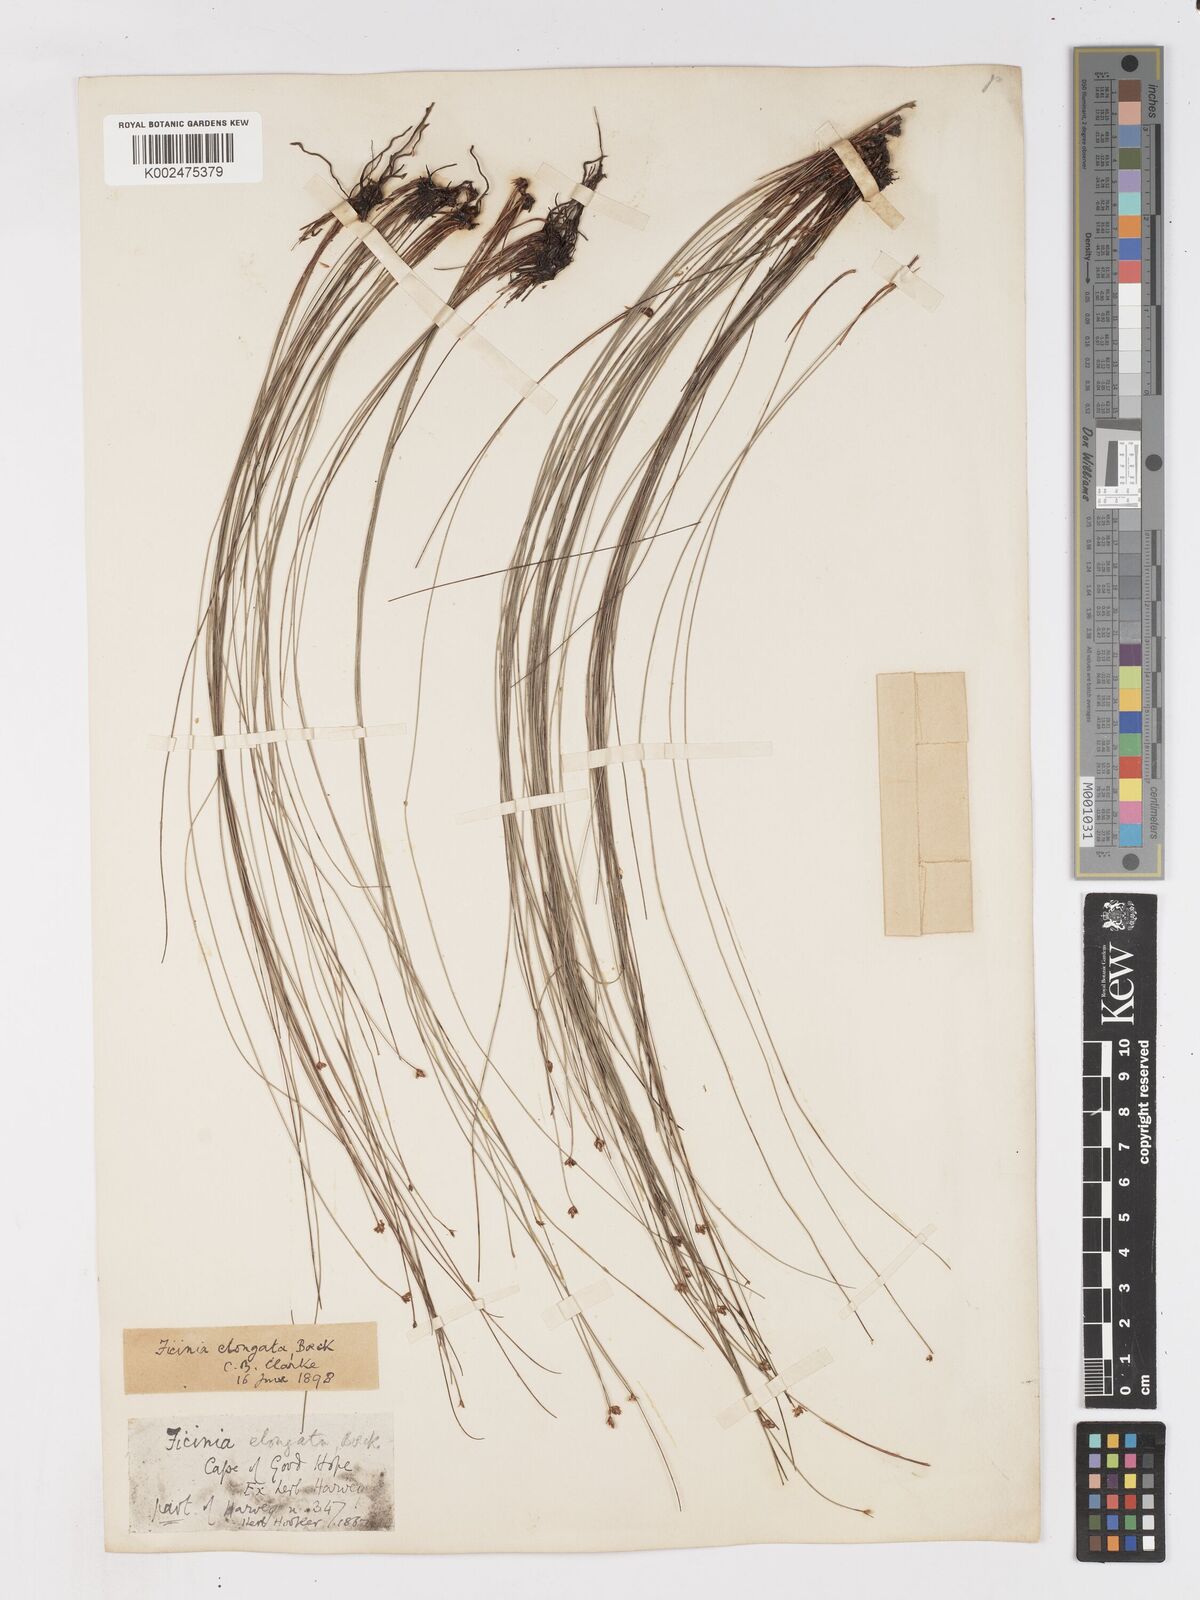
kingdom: Plantae
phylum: Tracheophyta
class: Liliopsida
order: Poales
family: Cyperaceae
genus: Ficinia
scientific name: Ficinia acuminata
